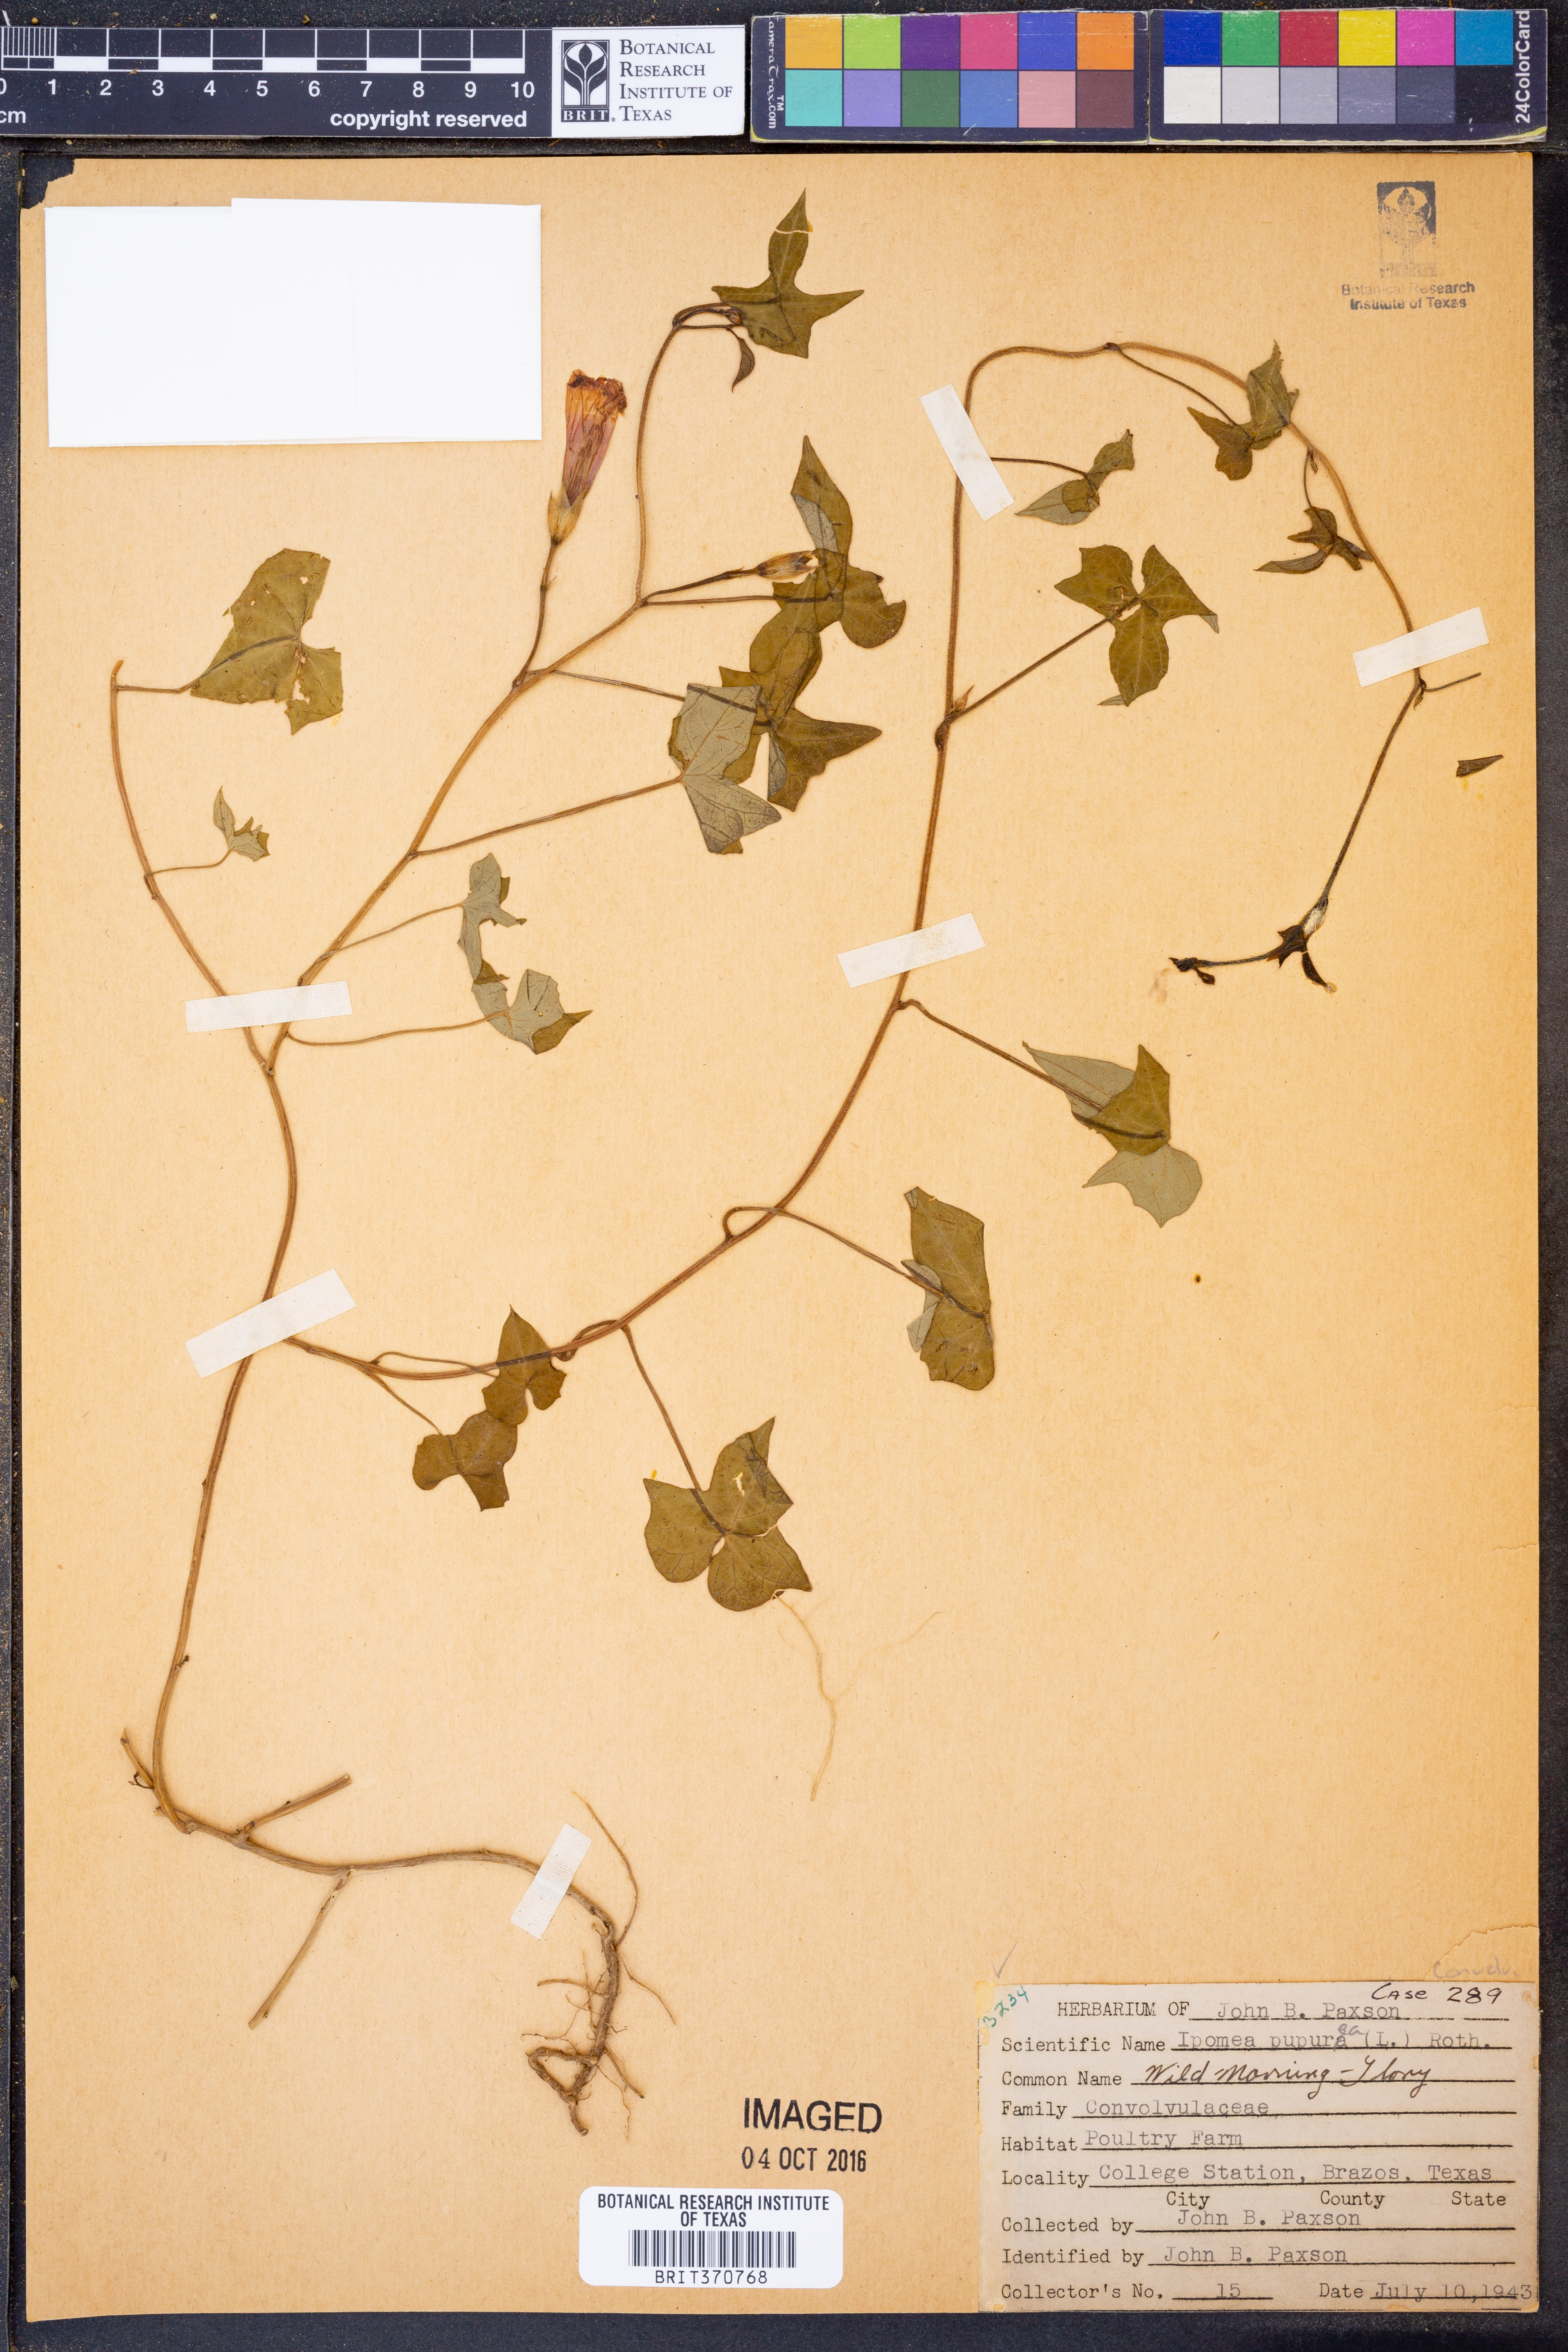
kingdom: Plantae
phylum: Tracheophyta
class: Magnoliopsida
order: Solanales
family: Convolvulaceae
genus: Ipomoea
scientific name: Ipomoea purpurea
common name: Common morning-glory
